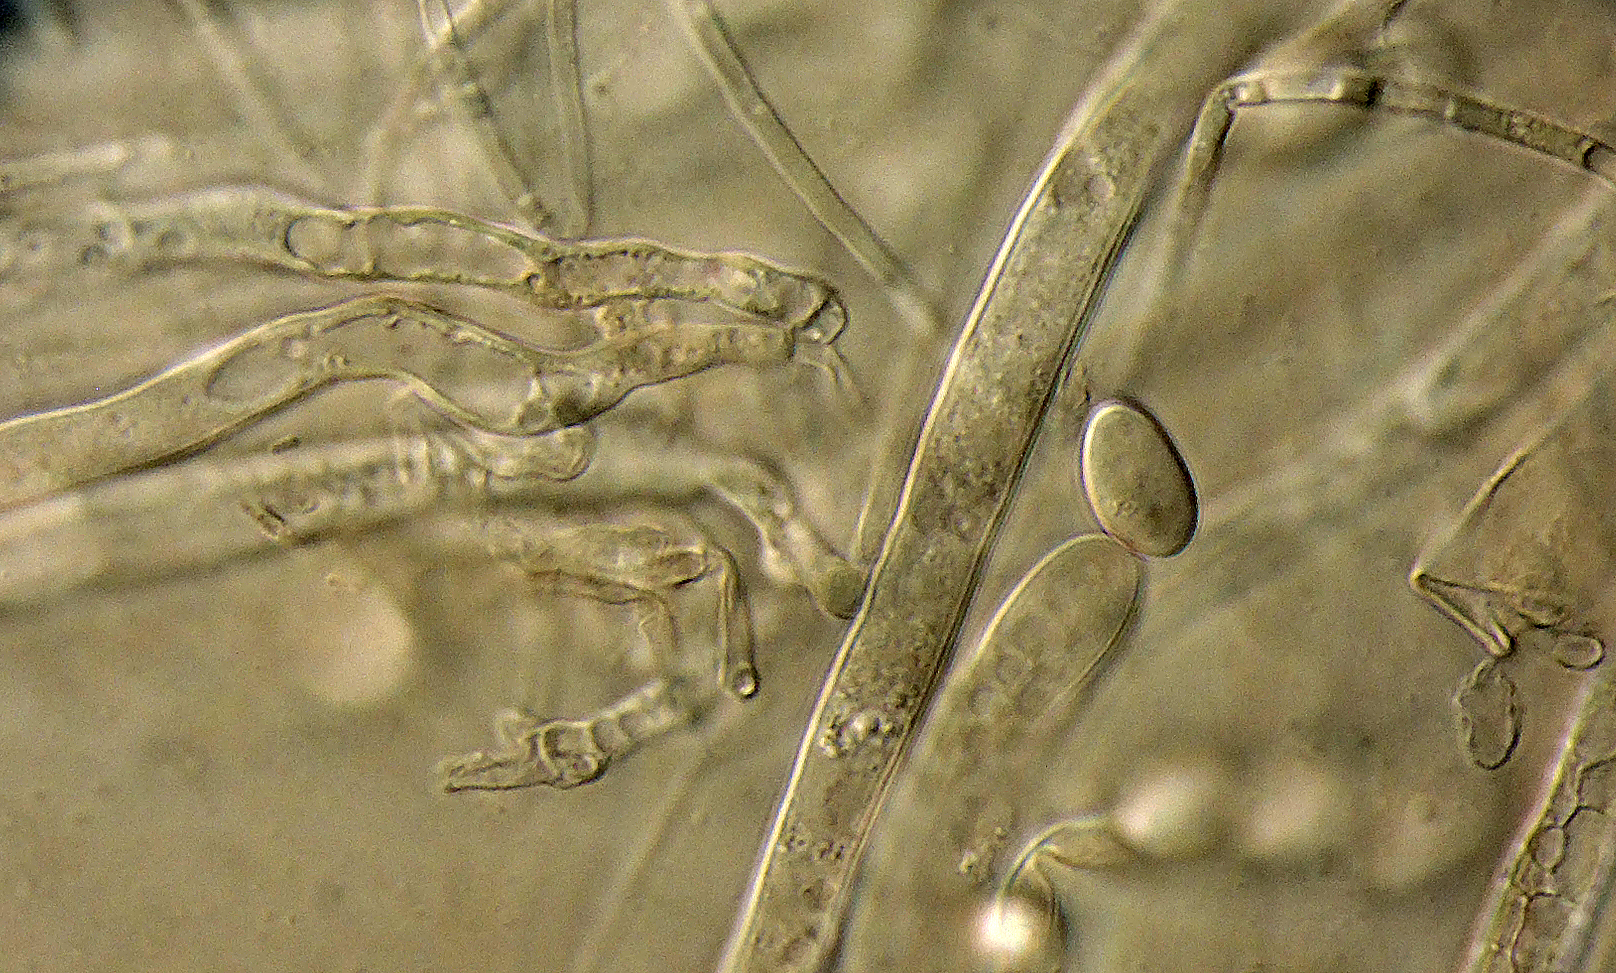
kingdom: Fungi
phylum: Ascomycota
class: Leotiomycetes
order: Helotiales
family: Sclerotiniaceae
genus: Myriosclerotinia
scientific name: Myriosclerotinia sulcatula
